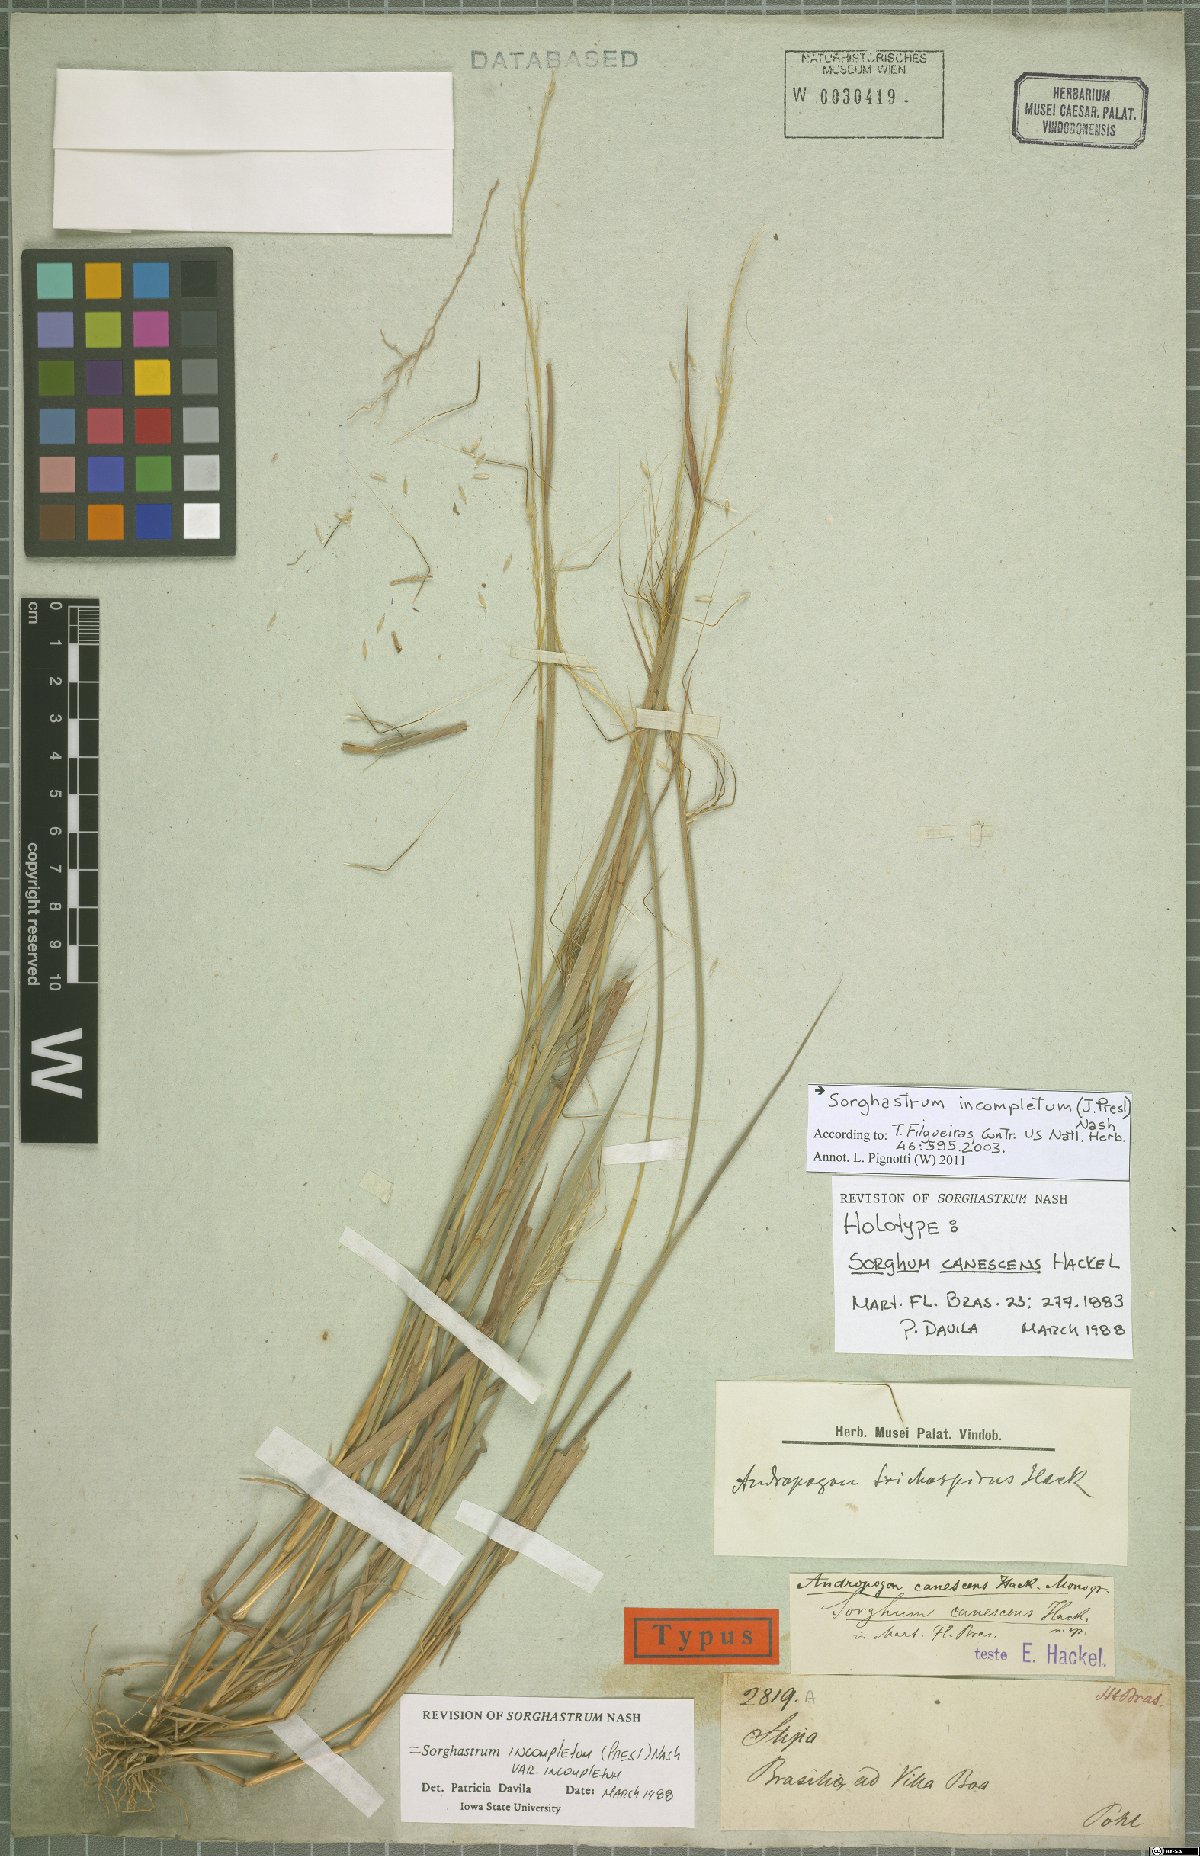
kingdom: Plantae
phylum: Tracheophyta
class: Liliopsida
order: Poales
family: Poaceae
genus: Sorghastrum
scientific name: Sorghastrum incompletum
